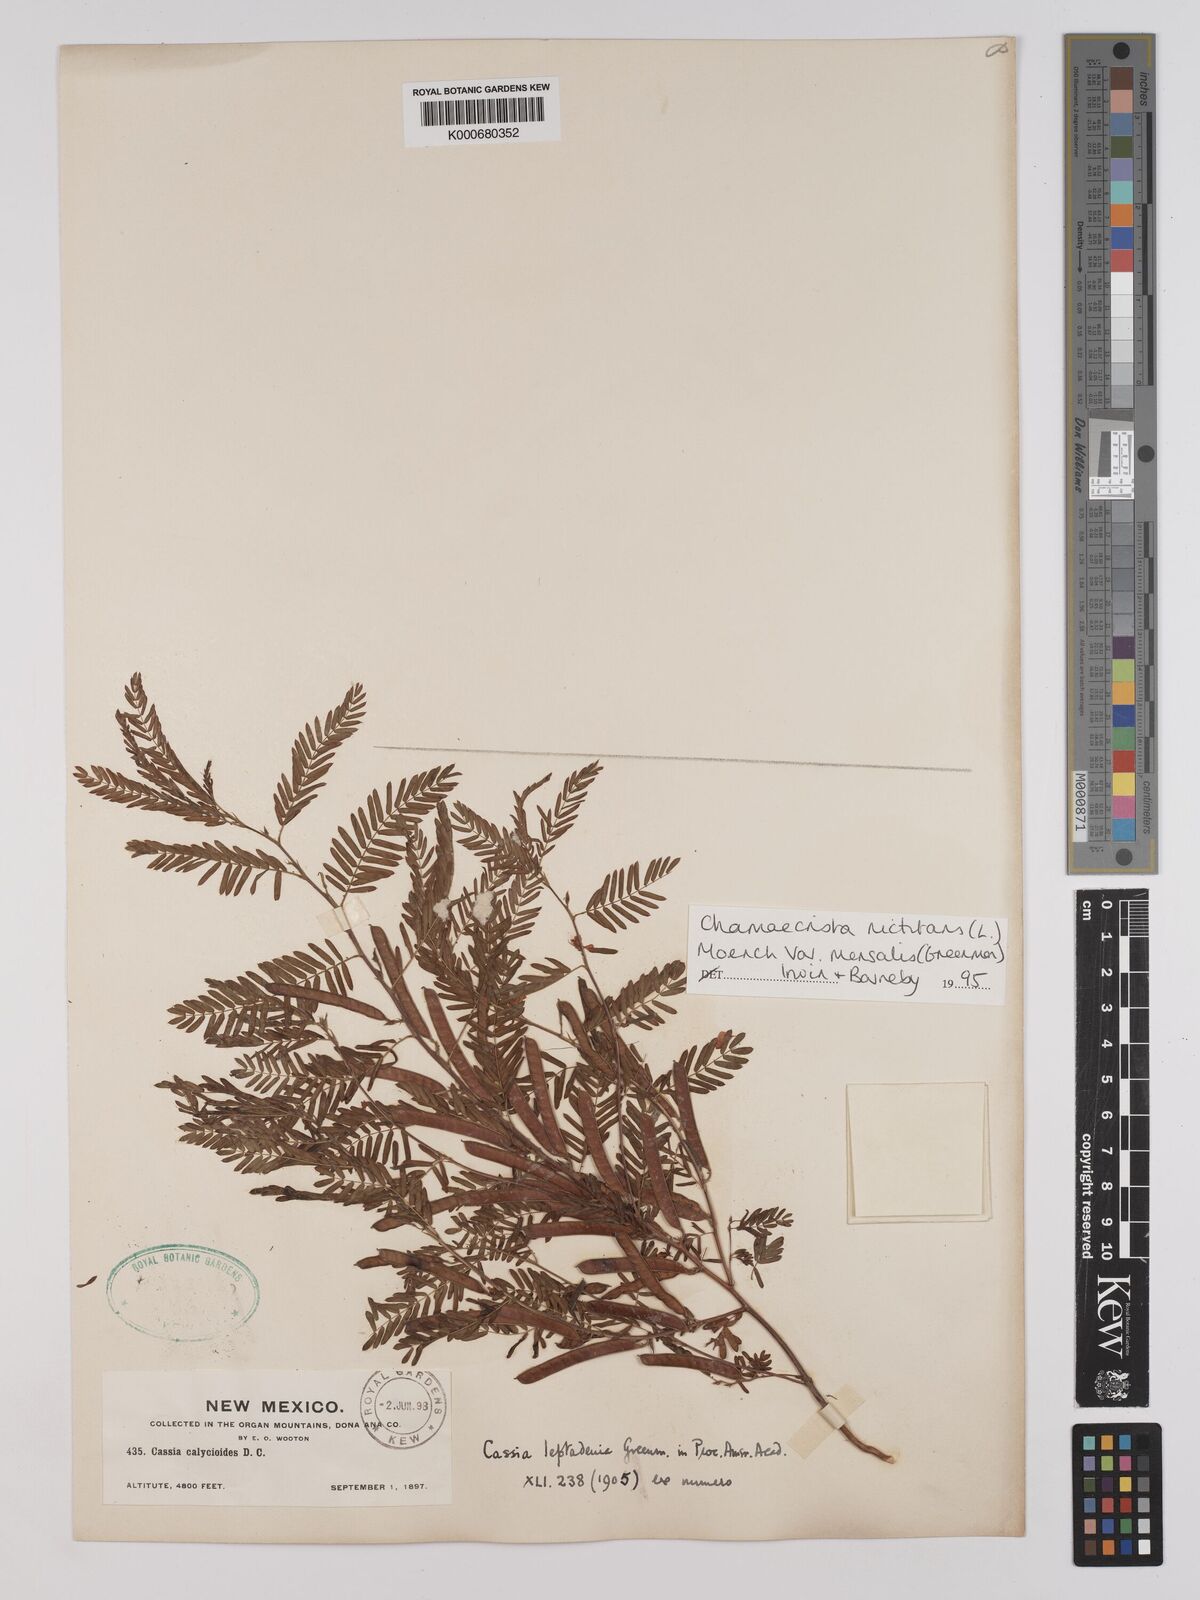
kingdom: Plantae
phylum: Tracheophyta
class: Magnoliopsida
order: Fabales
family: Fabaceae
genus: Chamaecrista
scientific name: Chamaecrista nictitans
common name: Sensitive cassia
